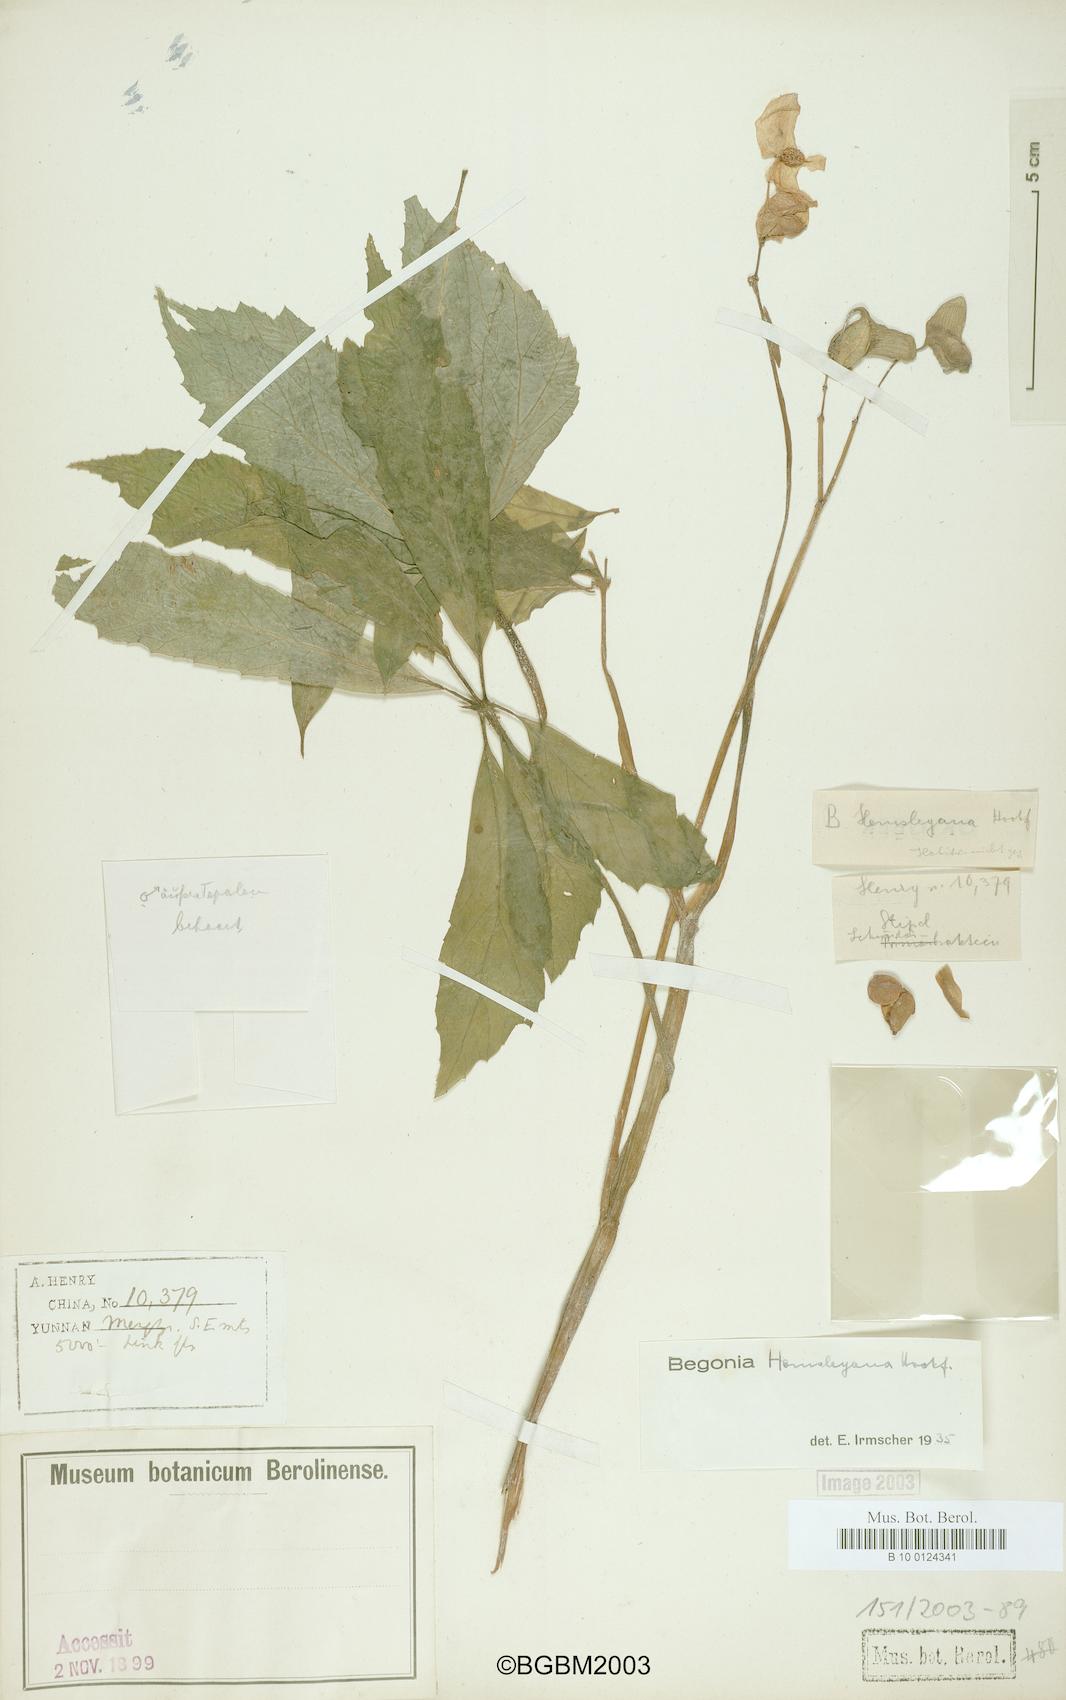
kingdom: Plantae
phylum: Tracheophyta
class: Magnoliopsida
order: Cucurbitales
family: Begoniaceae
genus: Begonia
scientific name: Begonia hemsleyana
